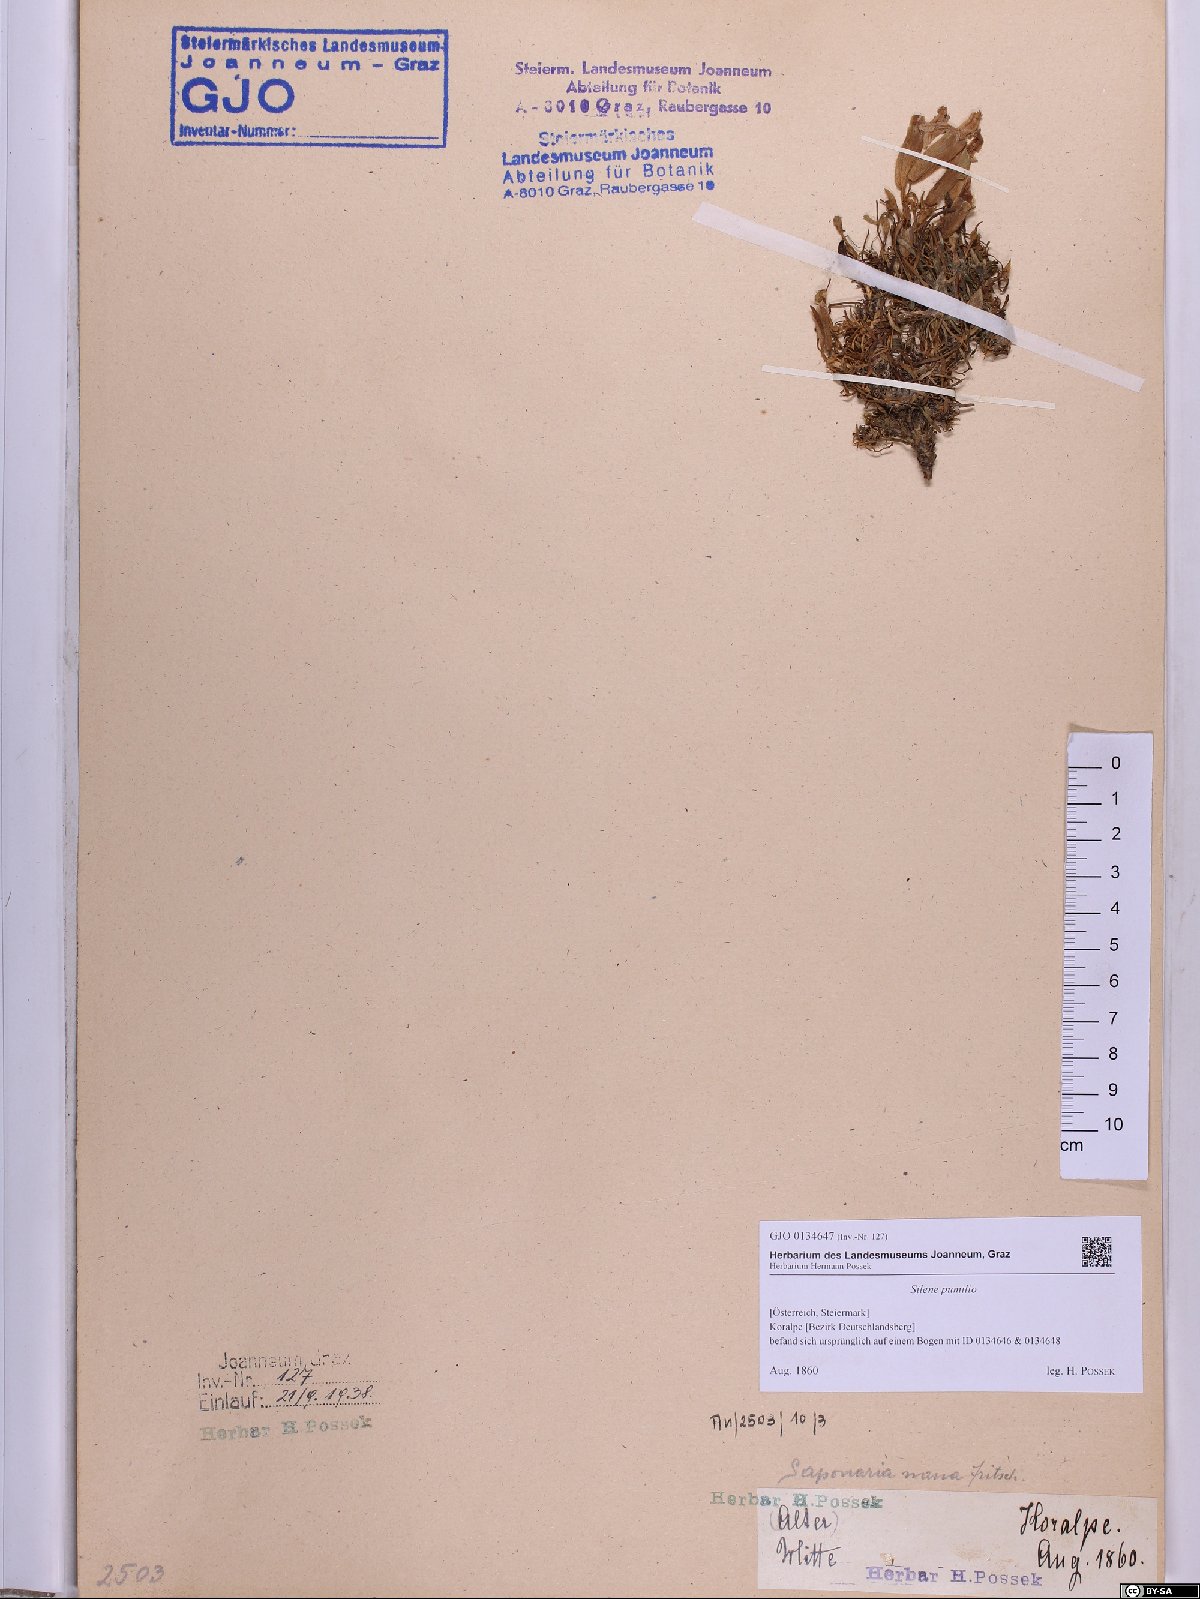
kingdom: Plantae
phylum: Tracheophyta
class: Magnoliopsida
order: Caryophyllales
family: Caryophyllaceae
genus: Saponaria
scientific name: Saponaria pumila
